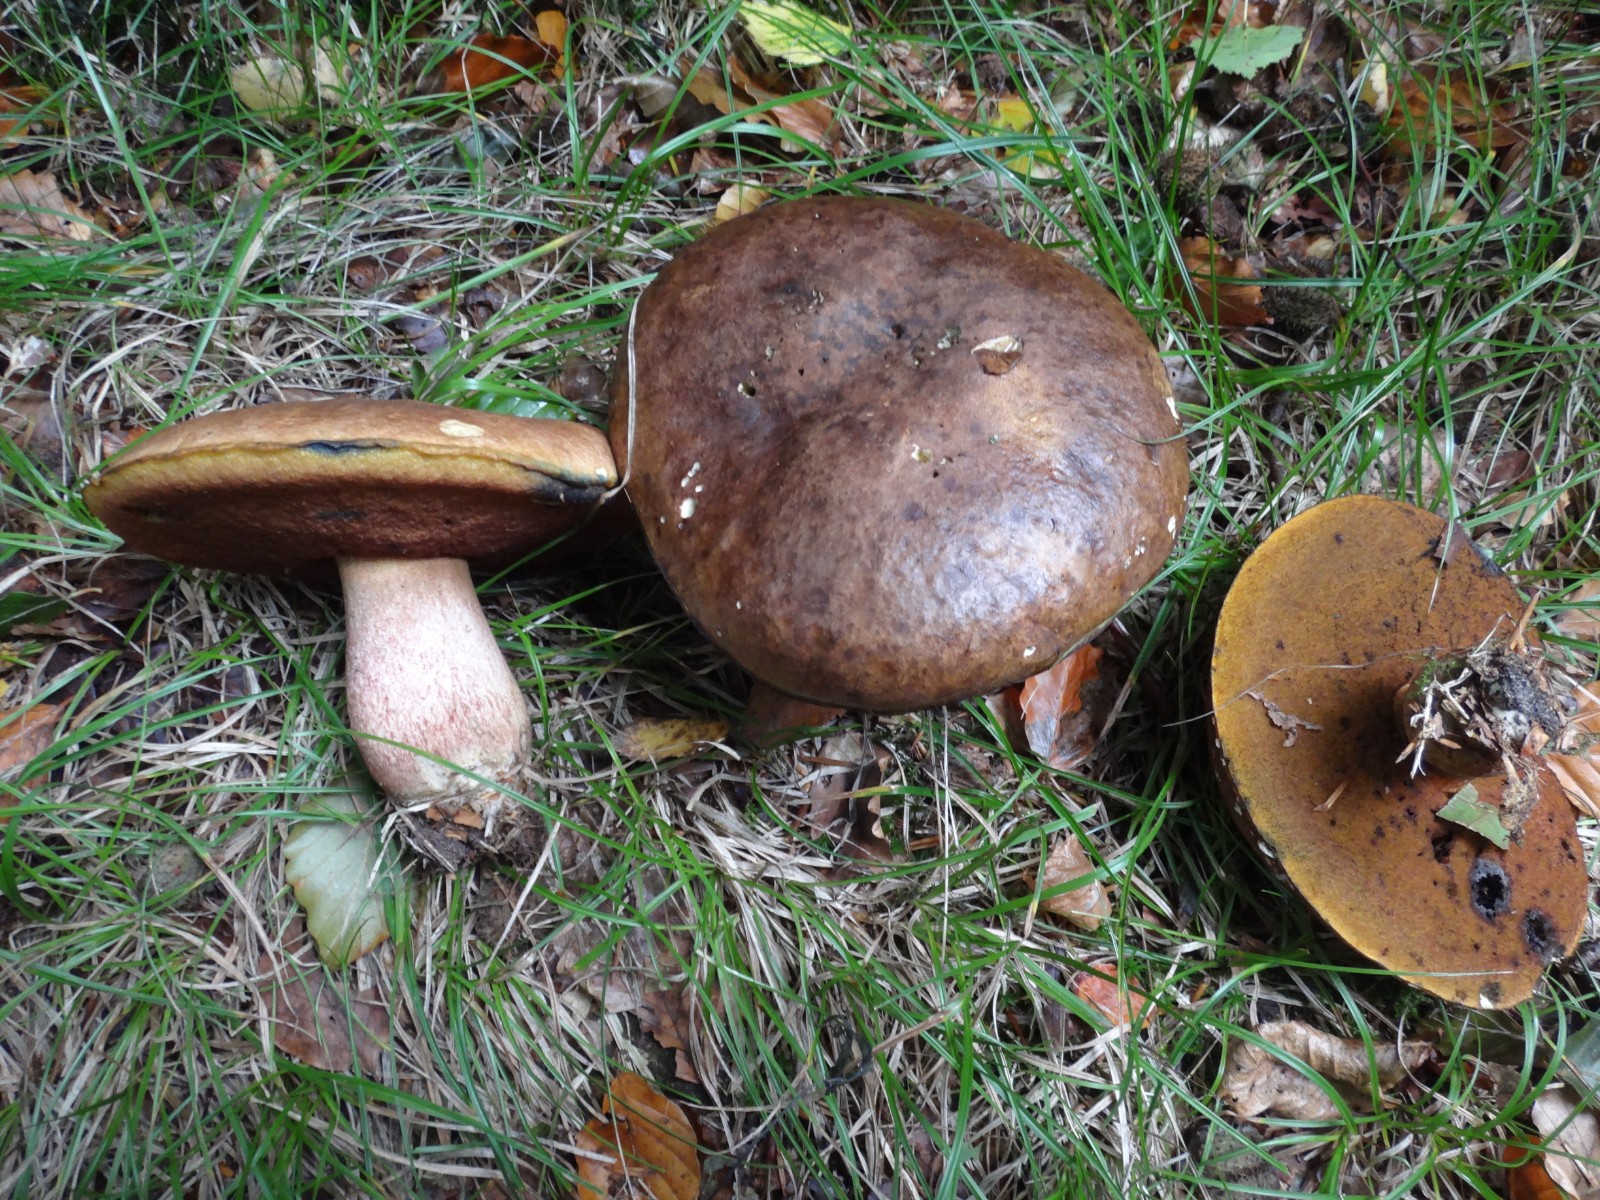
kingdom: Fungi
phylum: Basidiomycota
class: Agaricomycetes
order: Boletales
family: Boletaceae
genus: Neoboletus
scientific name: Neoboletus erythropus
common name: punktstokket indigorørhat
